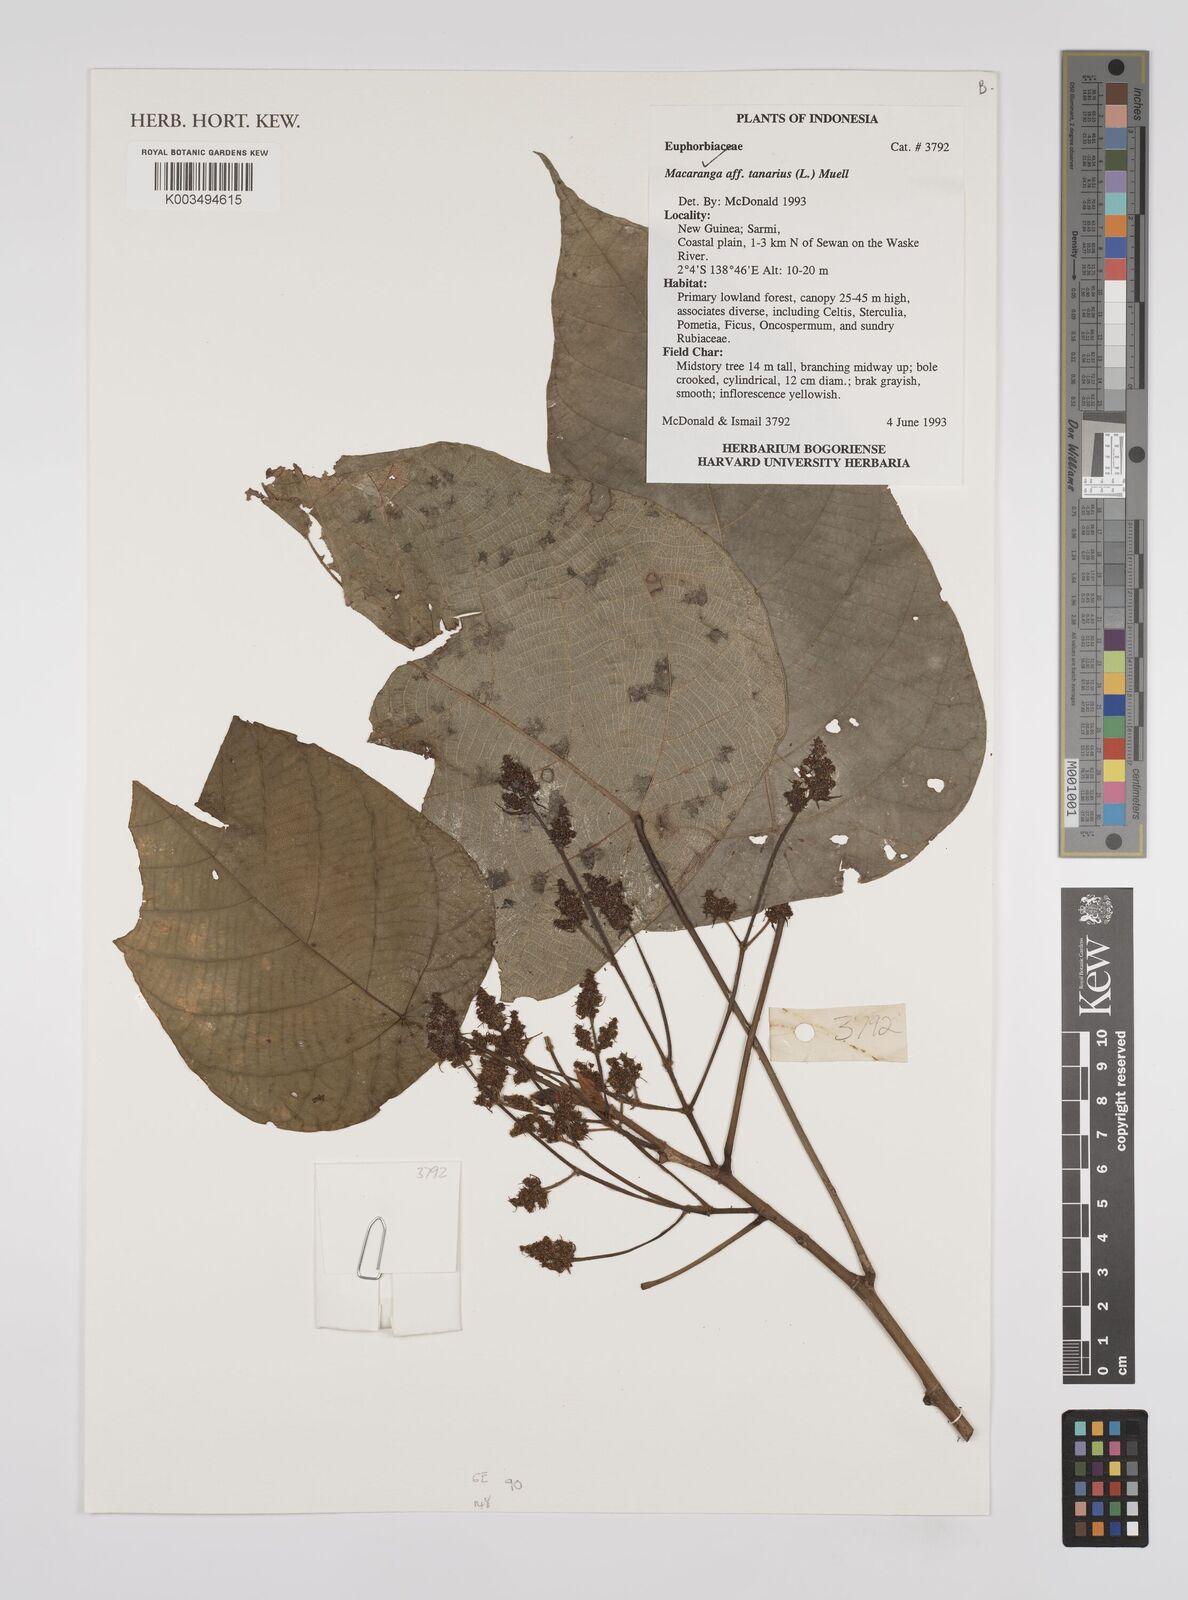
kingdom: Plantae
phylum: Tracheophyta
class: Magnoliopsida
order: Malpighiales
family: Euphorbiaceae
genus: Macaranga
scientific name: Macaranga tanarius
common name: Parasol leaf tree
